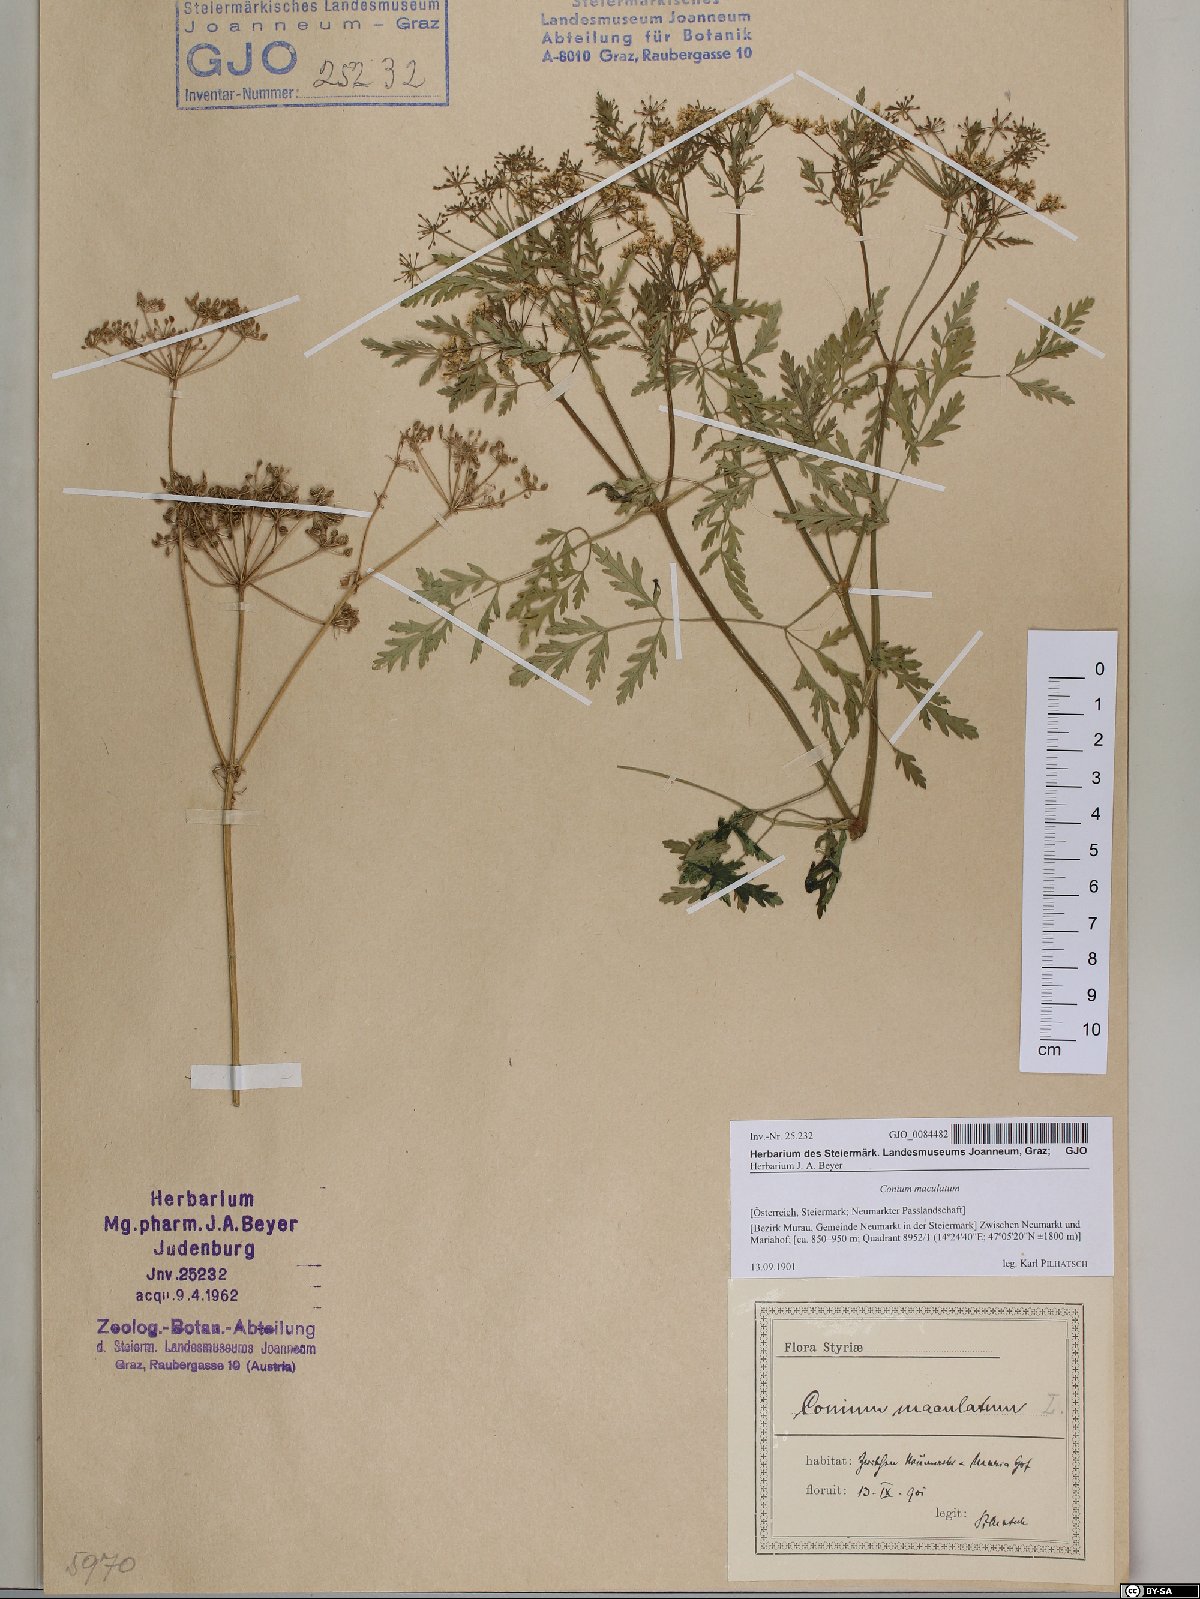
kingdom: Plantae
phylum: Tracheophyta
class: Magnoliopsida
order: Apiales
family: Apiaceae
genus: Conium
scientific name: Conium maculatum
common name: Hemlock
